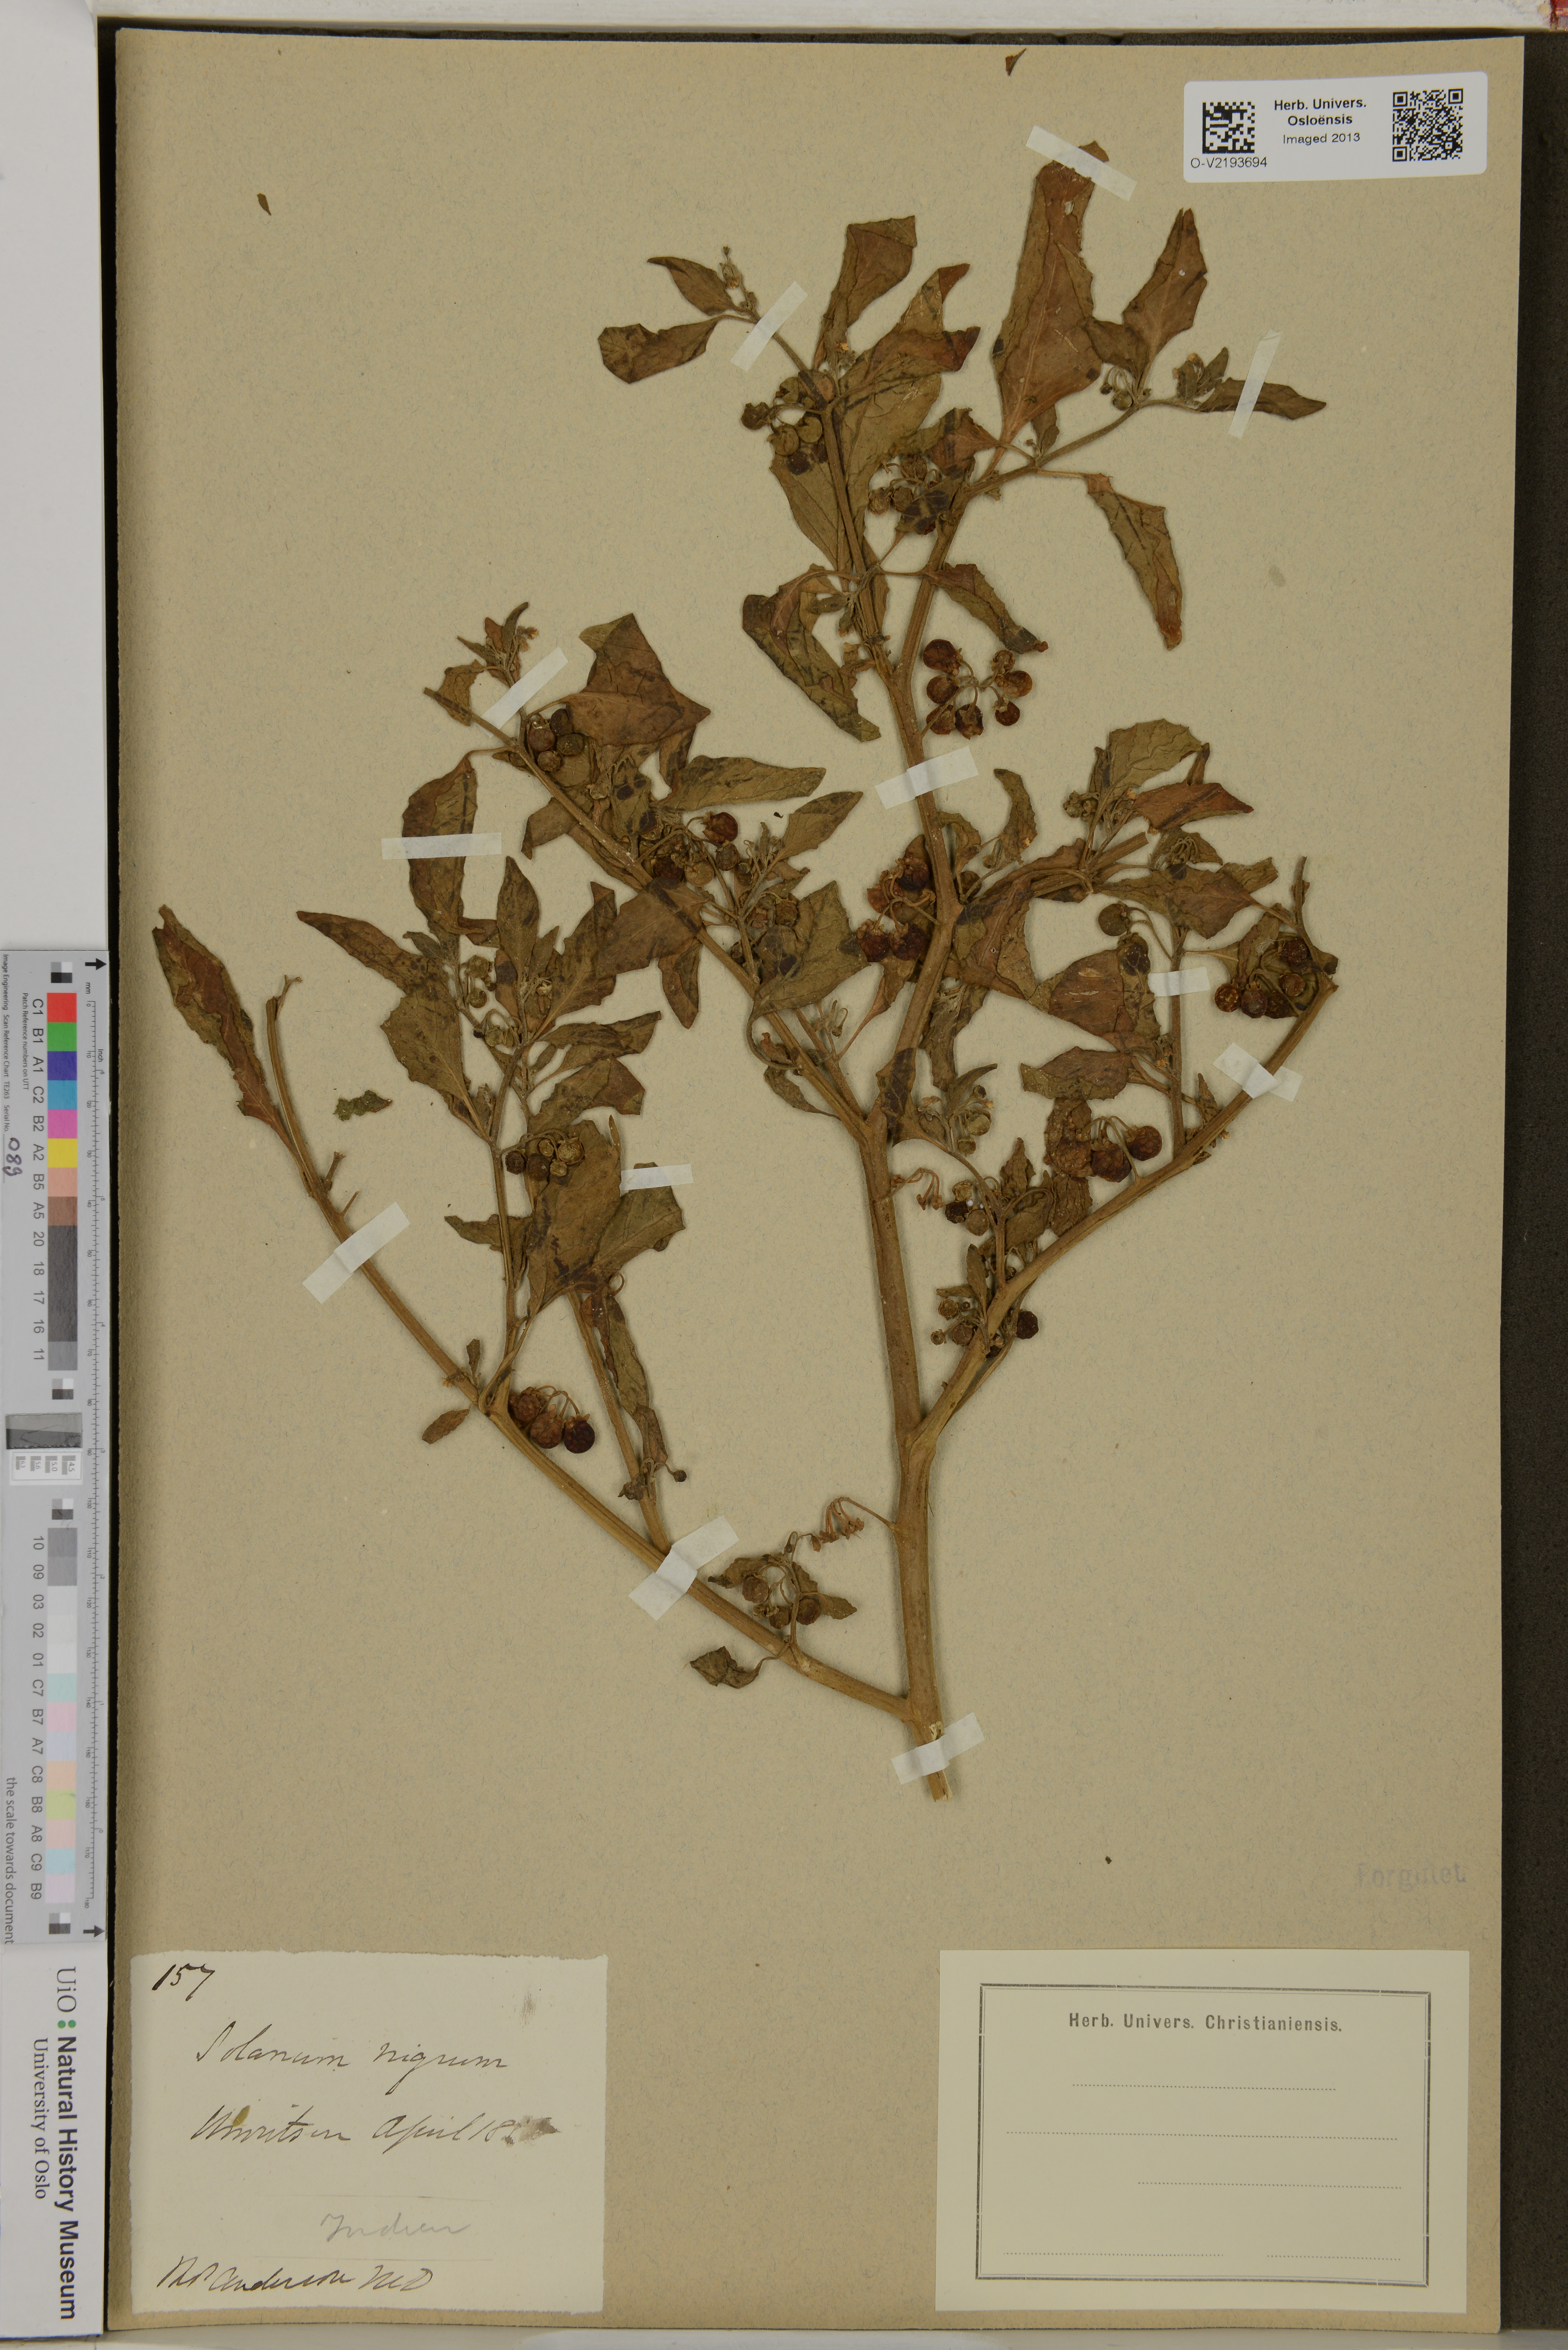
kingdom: Plantae
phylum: Tracheophyta
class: Magnoliopsida
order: Solanales
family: Solanaceae
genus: Solanum
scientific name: Solanum nigrum
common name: Black nightshade
